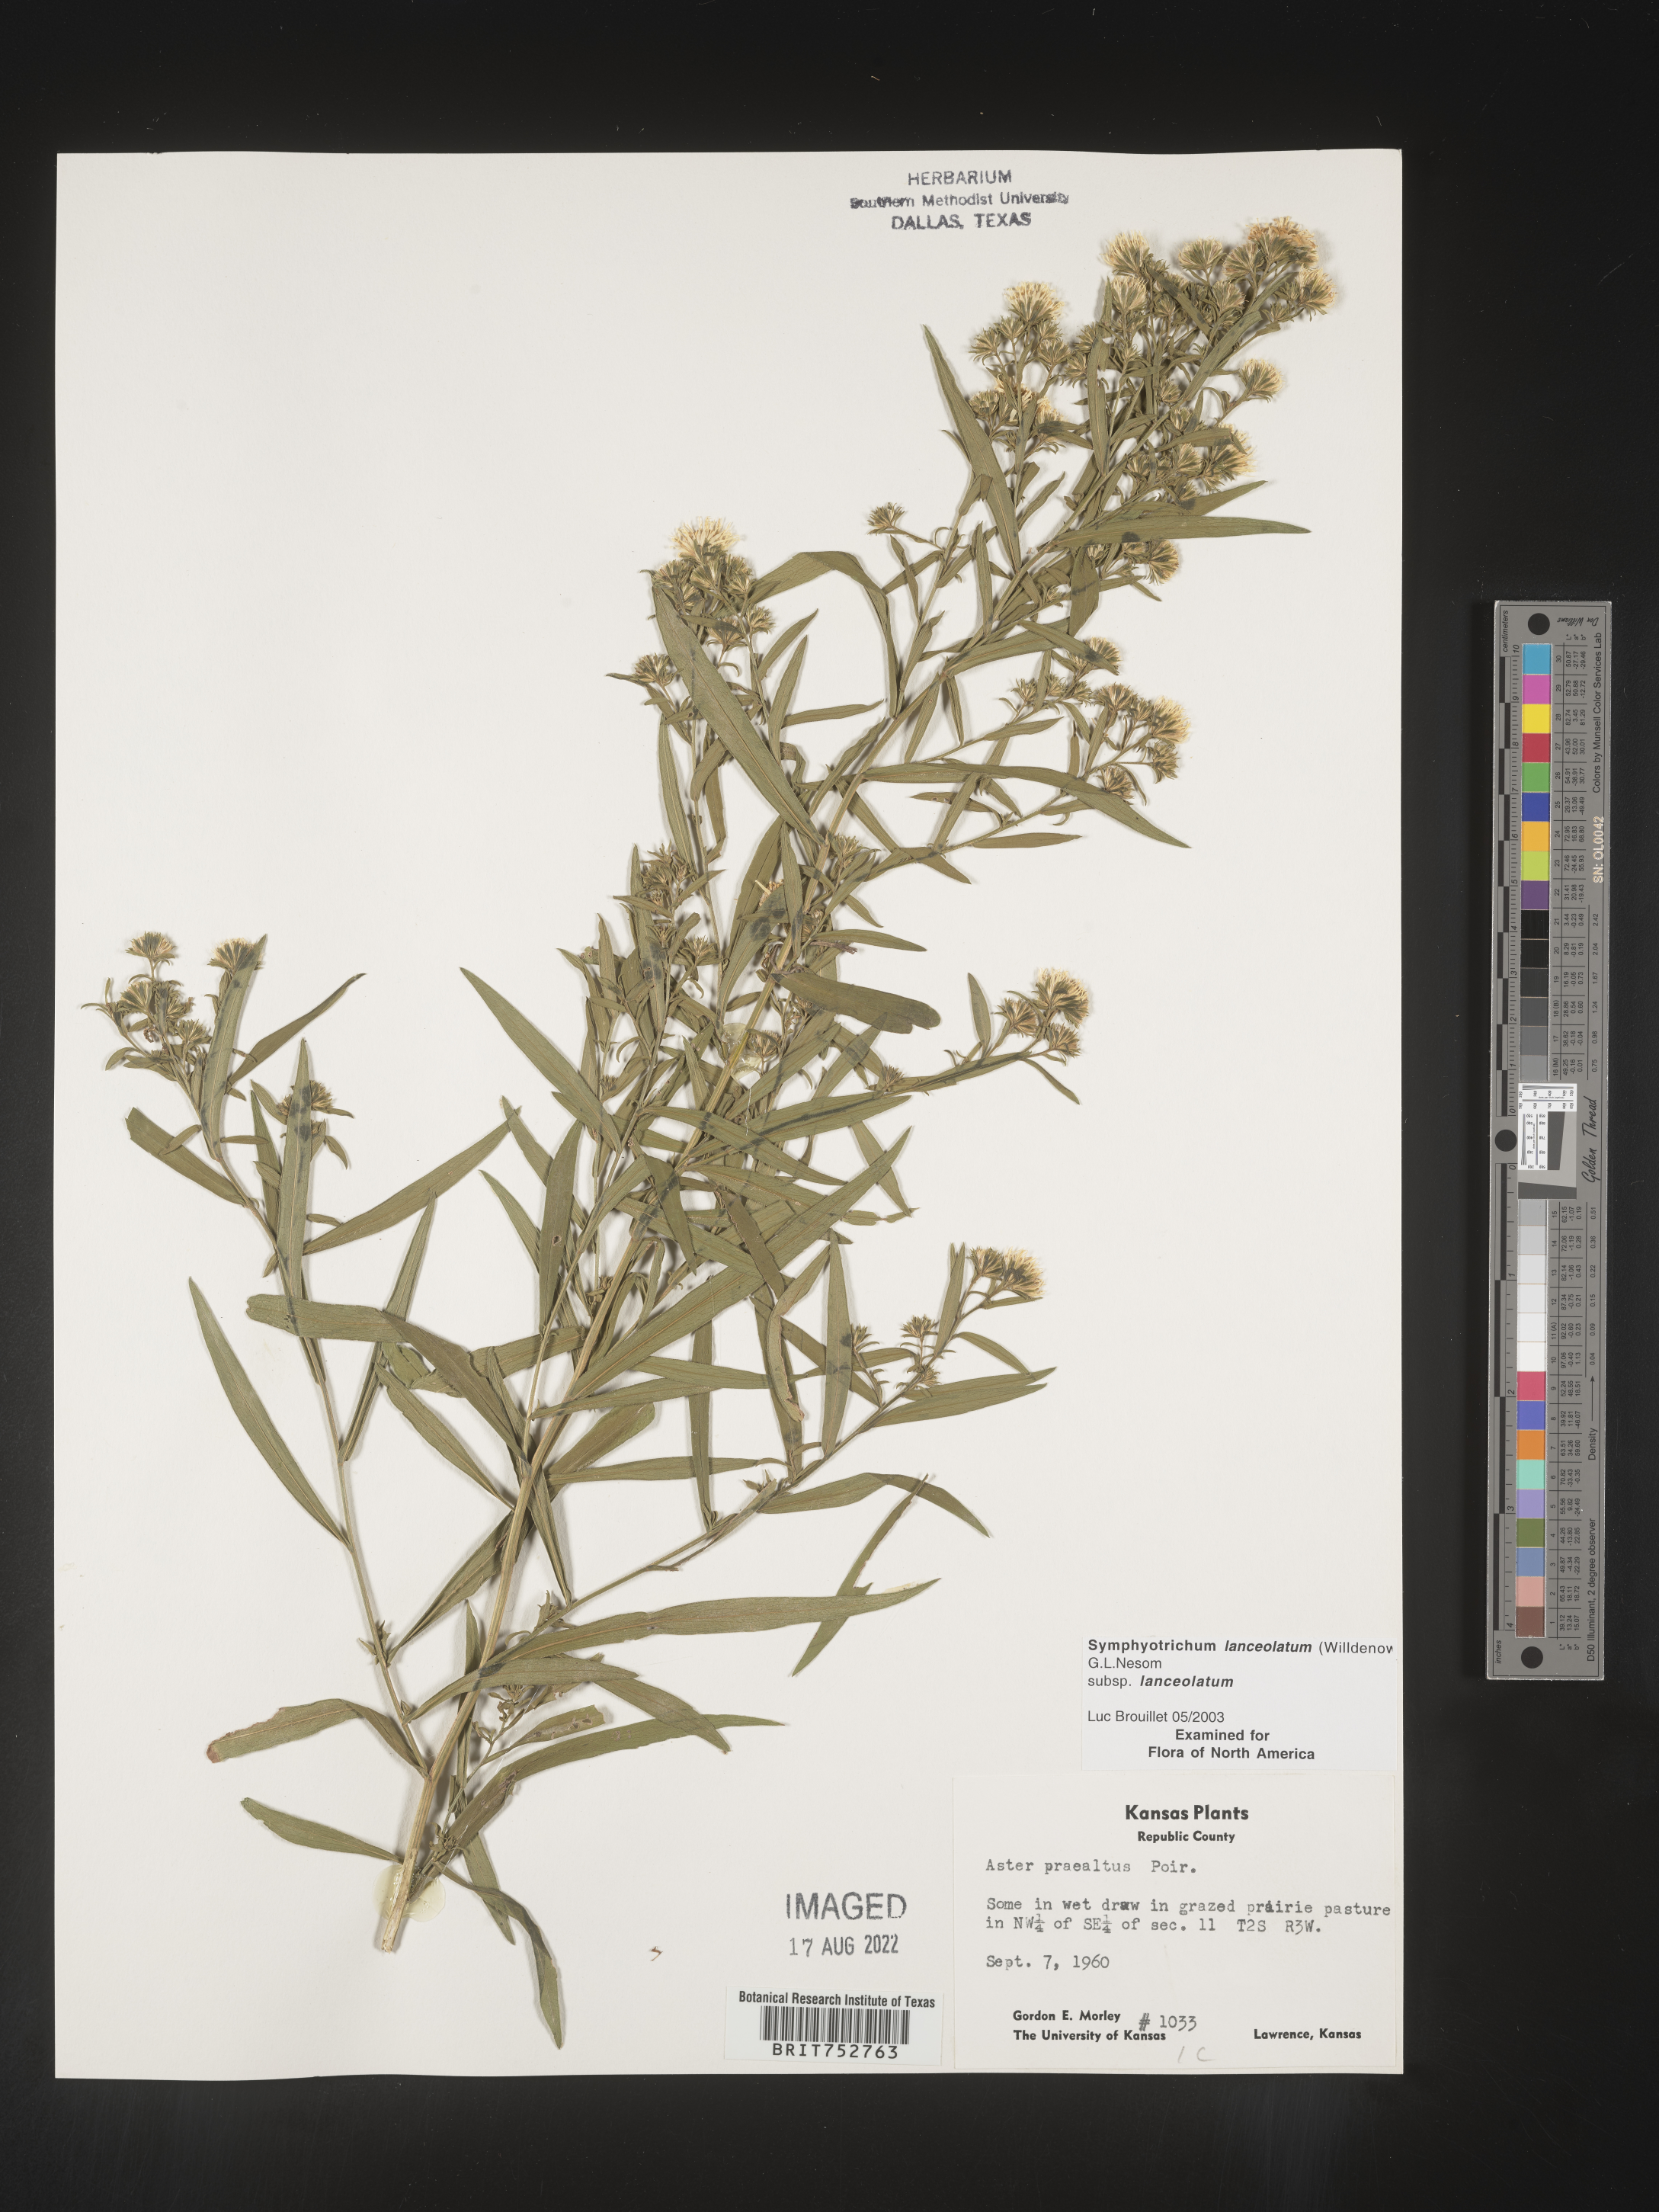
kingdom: Plantae
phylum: Tracheophyta
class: Magnoliopsida
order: Asterales
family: Asteraceae
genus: Symphyotrichum
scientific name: Symphyotrichum lanceolatum
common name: Panicled aster
